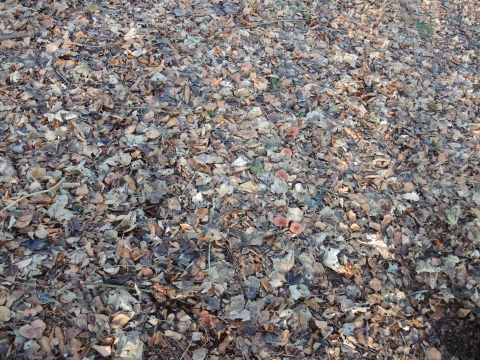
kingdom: Fungi
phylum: Basidiomycota
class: Agaricomycetes
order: Agaricales
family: Tricholomataceae
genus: Paralepista
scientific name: Paralepista flaccida
